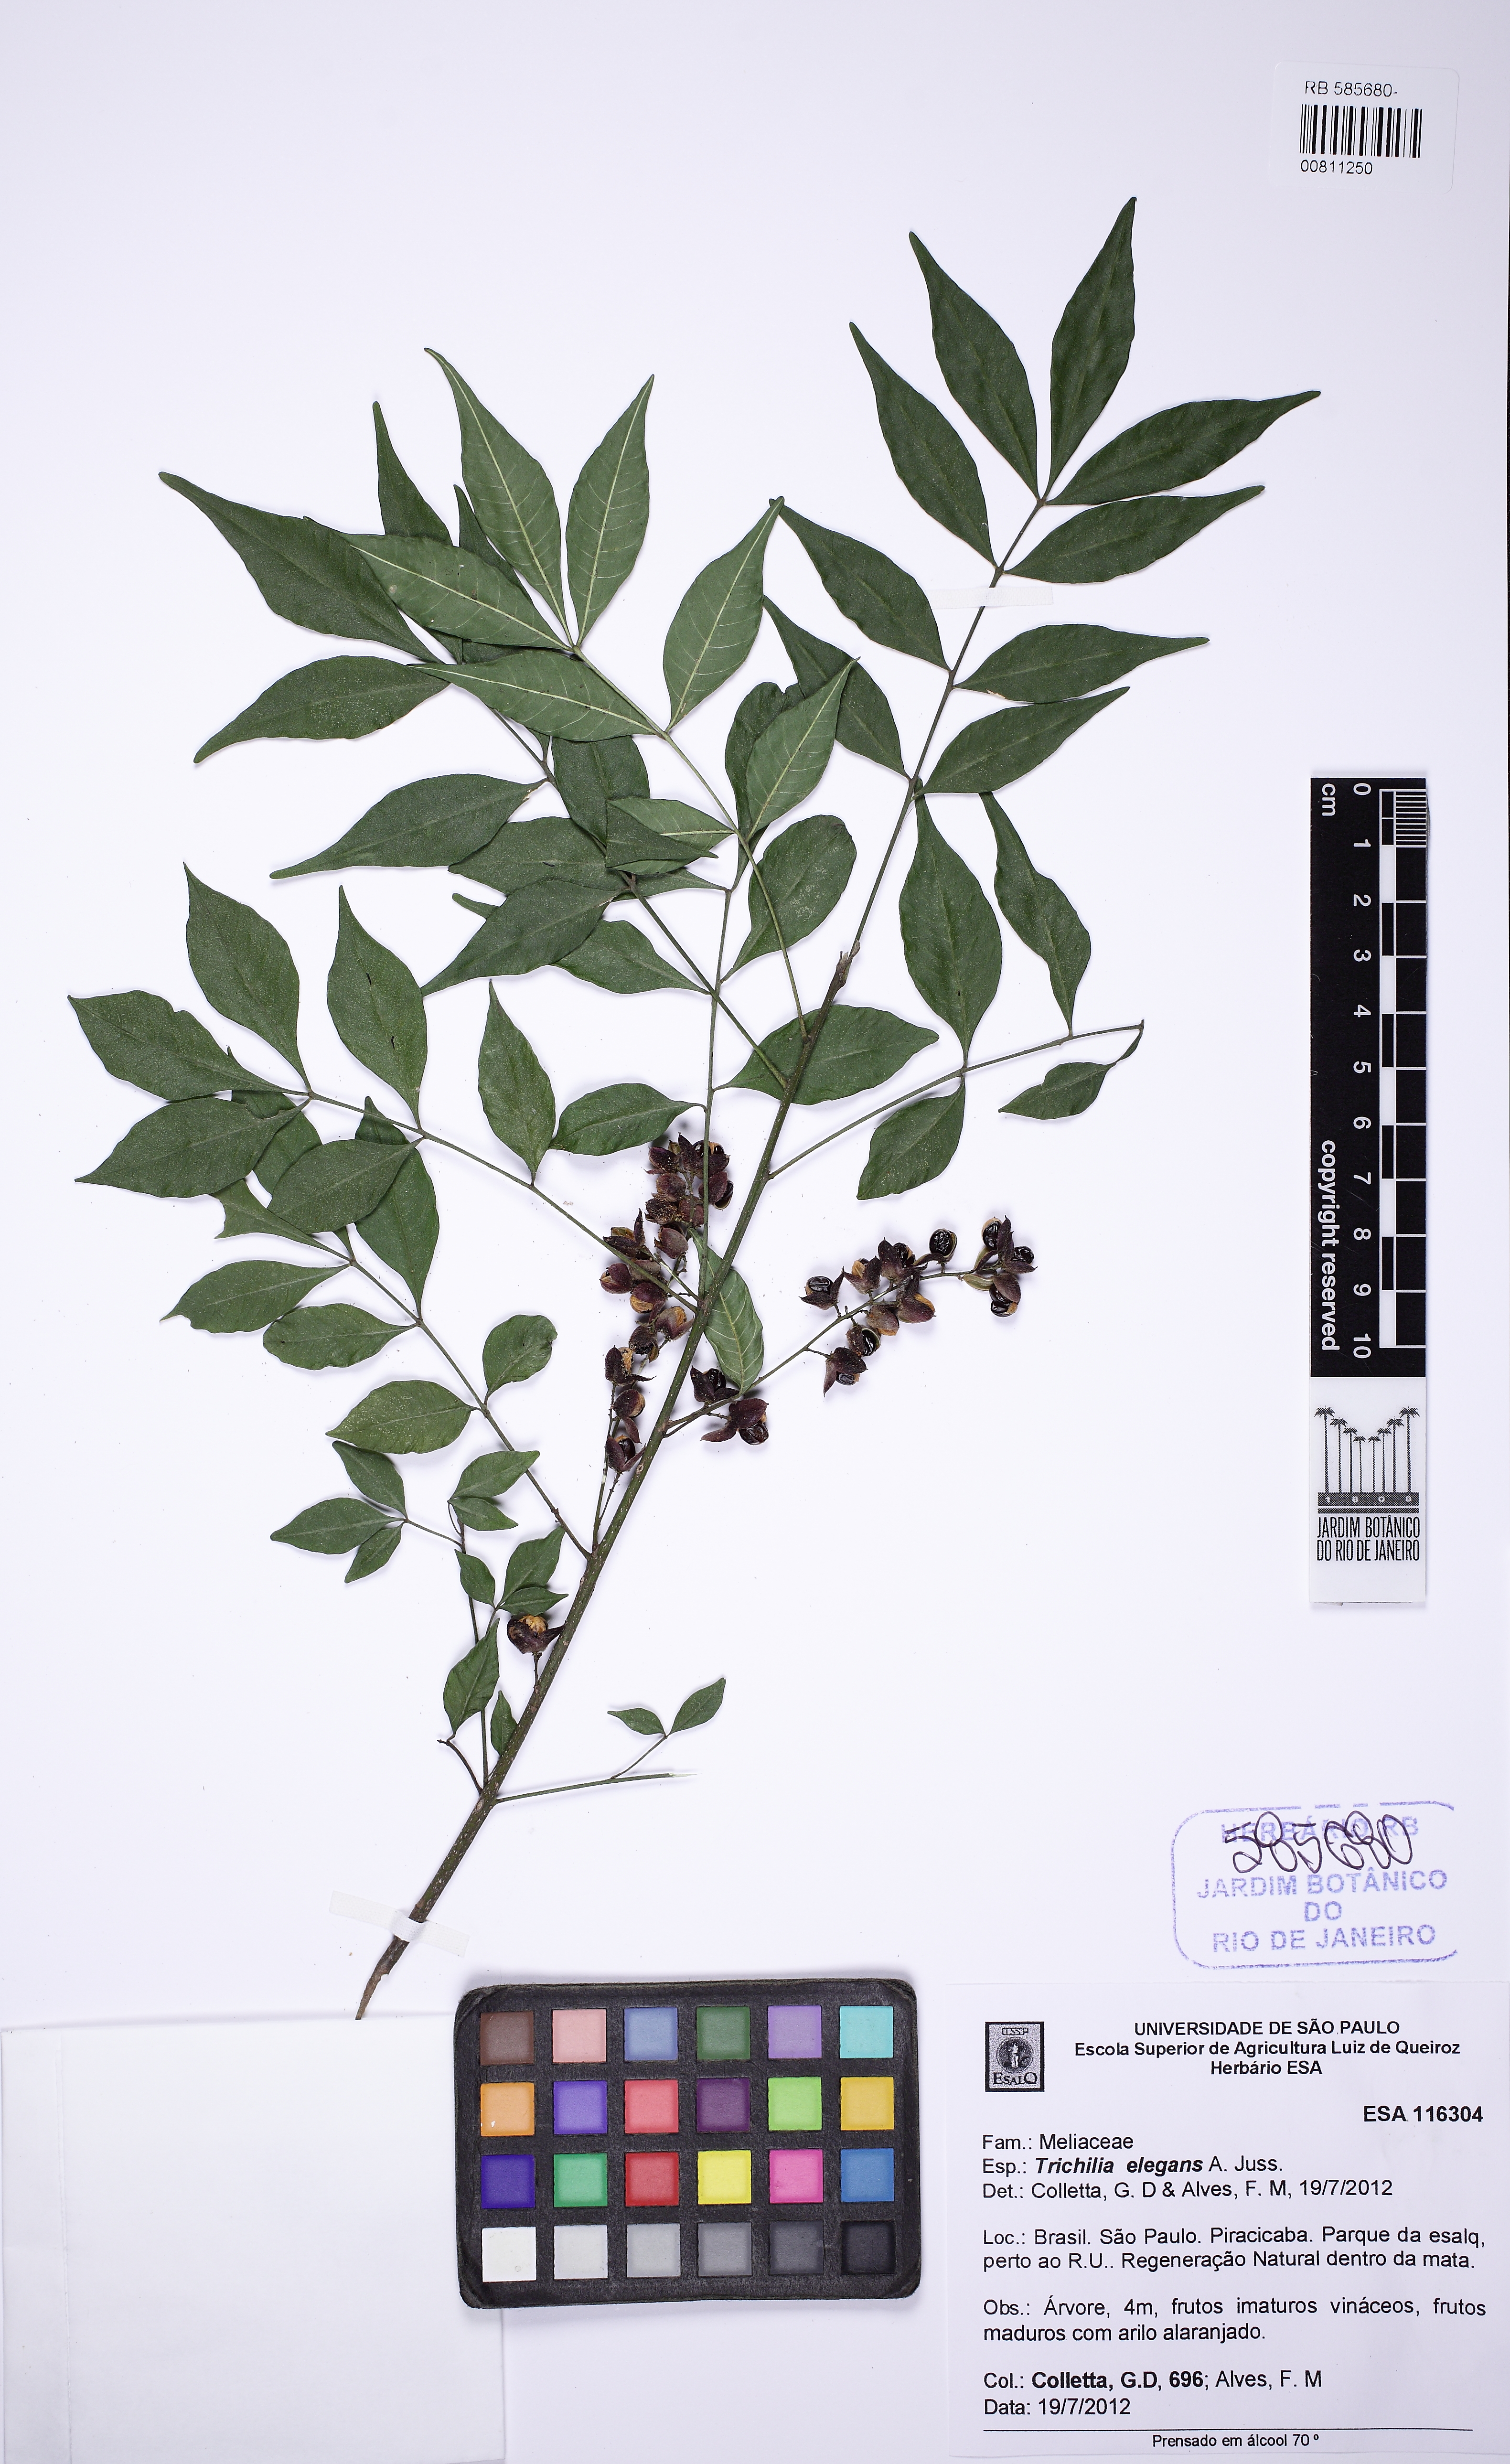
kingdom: Plantae
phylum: Tracheophyta
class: Magnoliopsida
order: Sapindales
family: Meliaceae
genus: Trichilia
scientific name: Trichilia elegans
